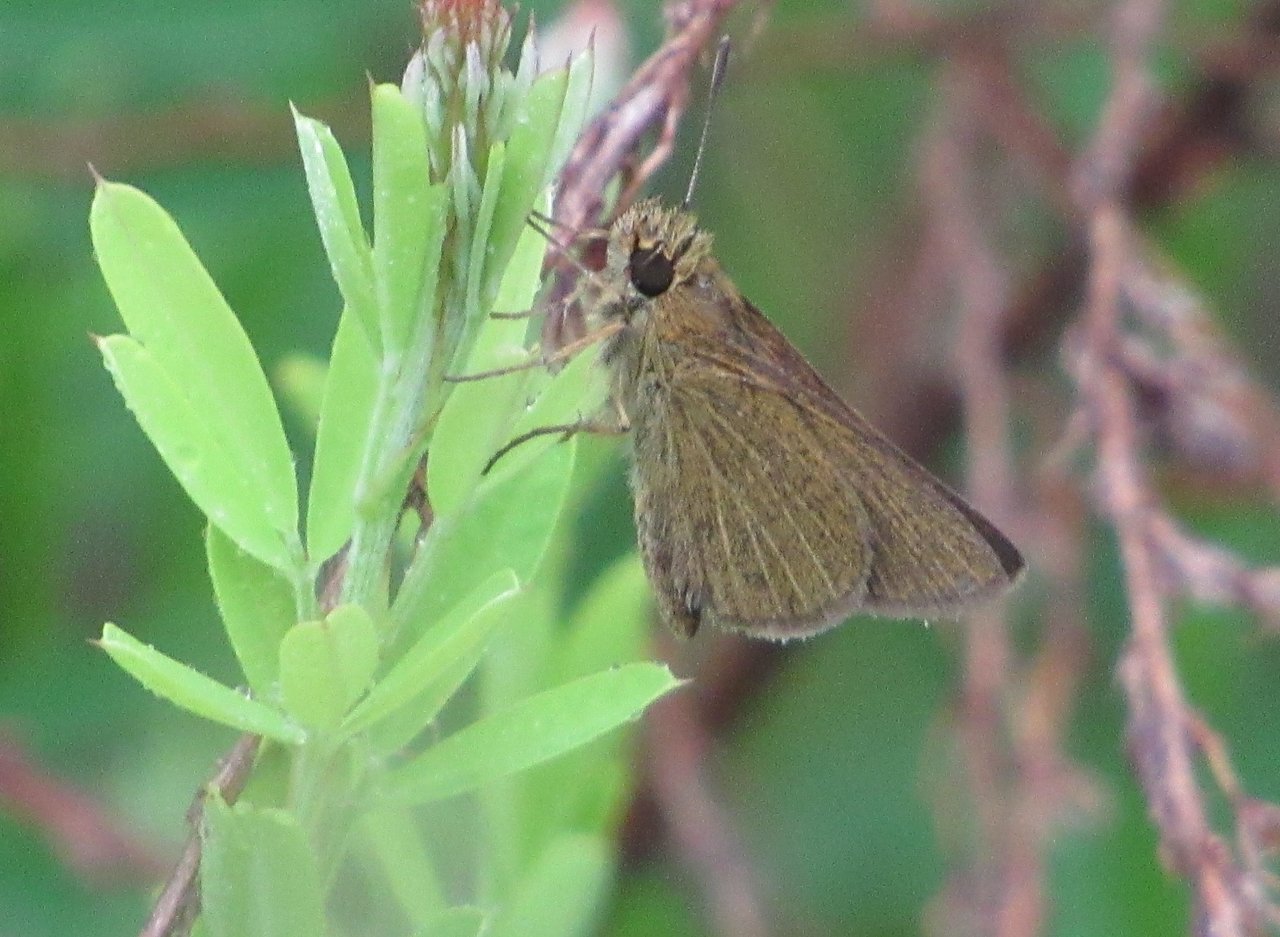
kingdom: Animalia
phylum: Arthropoda
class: Insecta
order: Lepidoptera
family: Hesperiidae
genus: Nastra
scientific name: Nastra lherminier
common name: Swarthy Skipper
